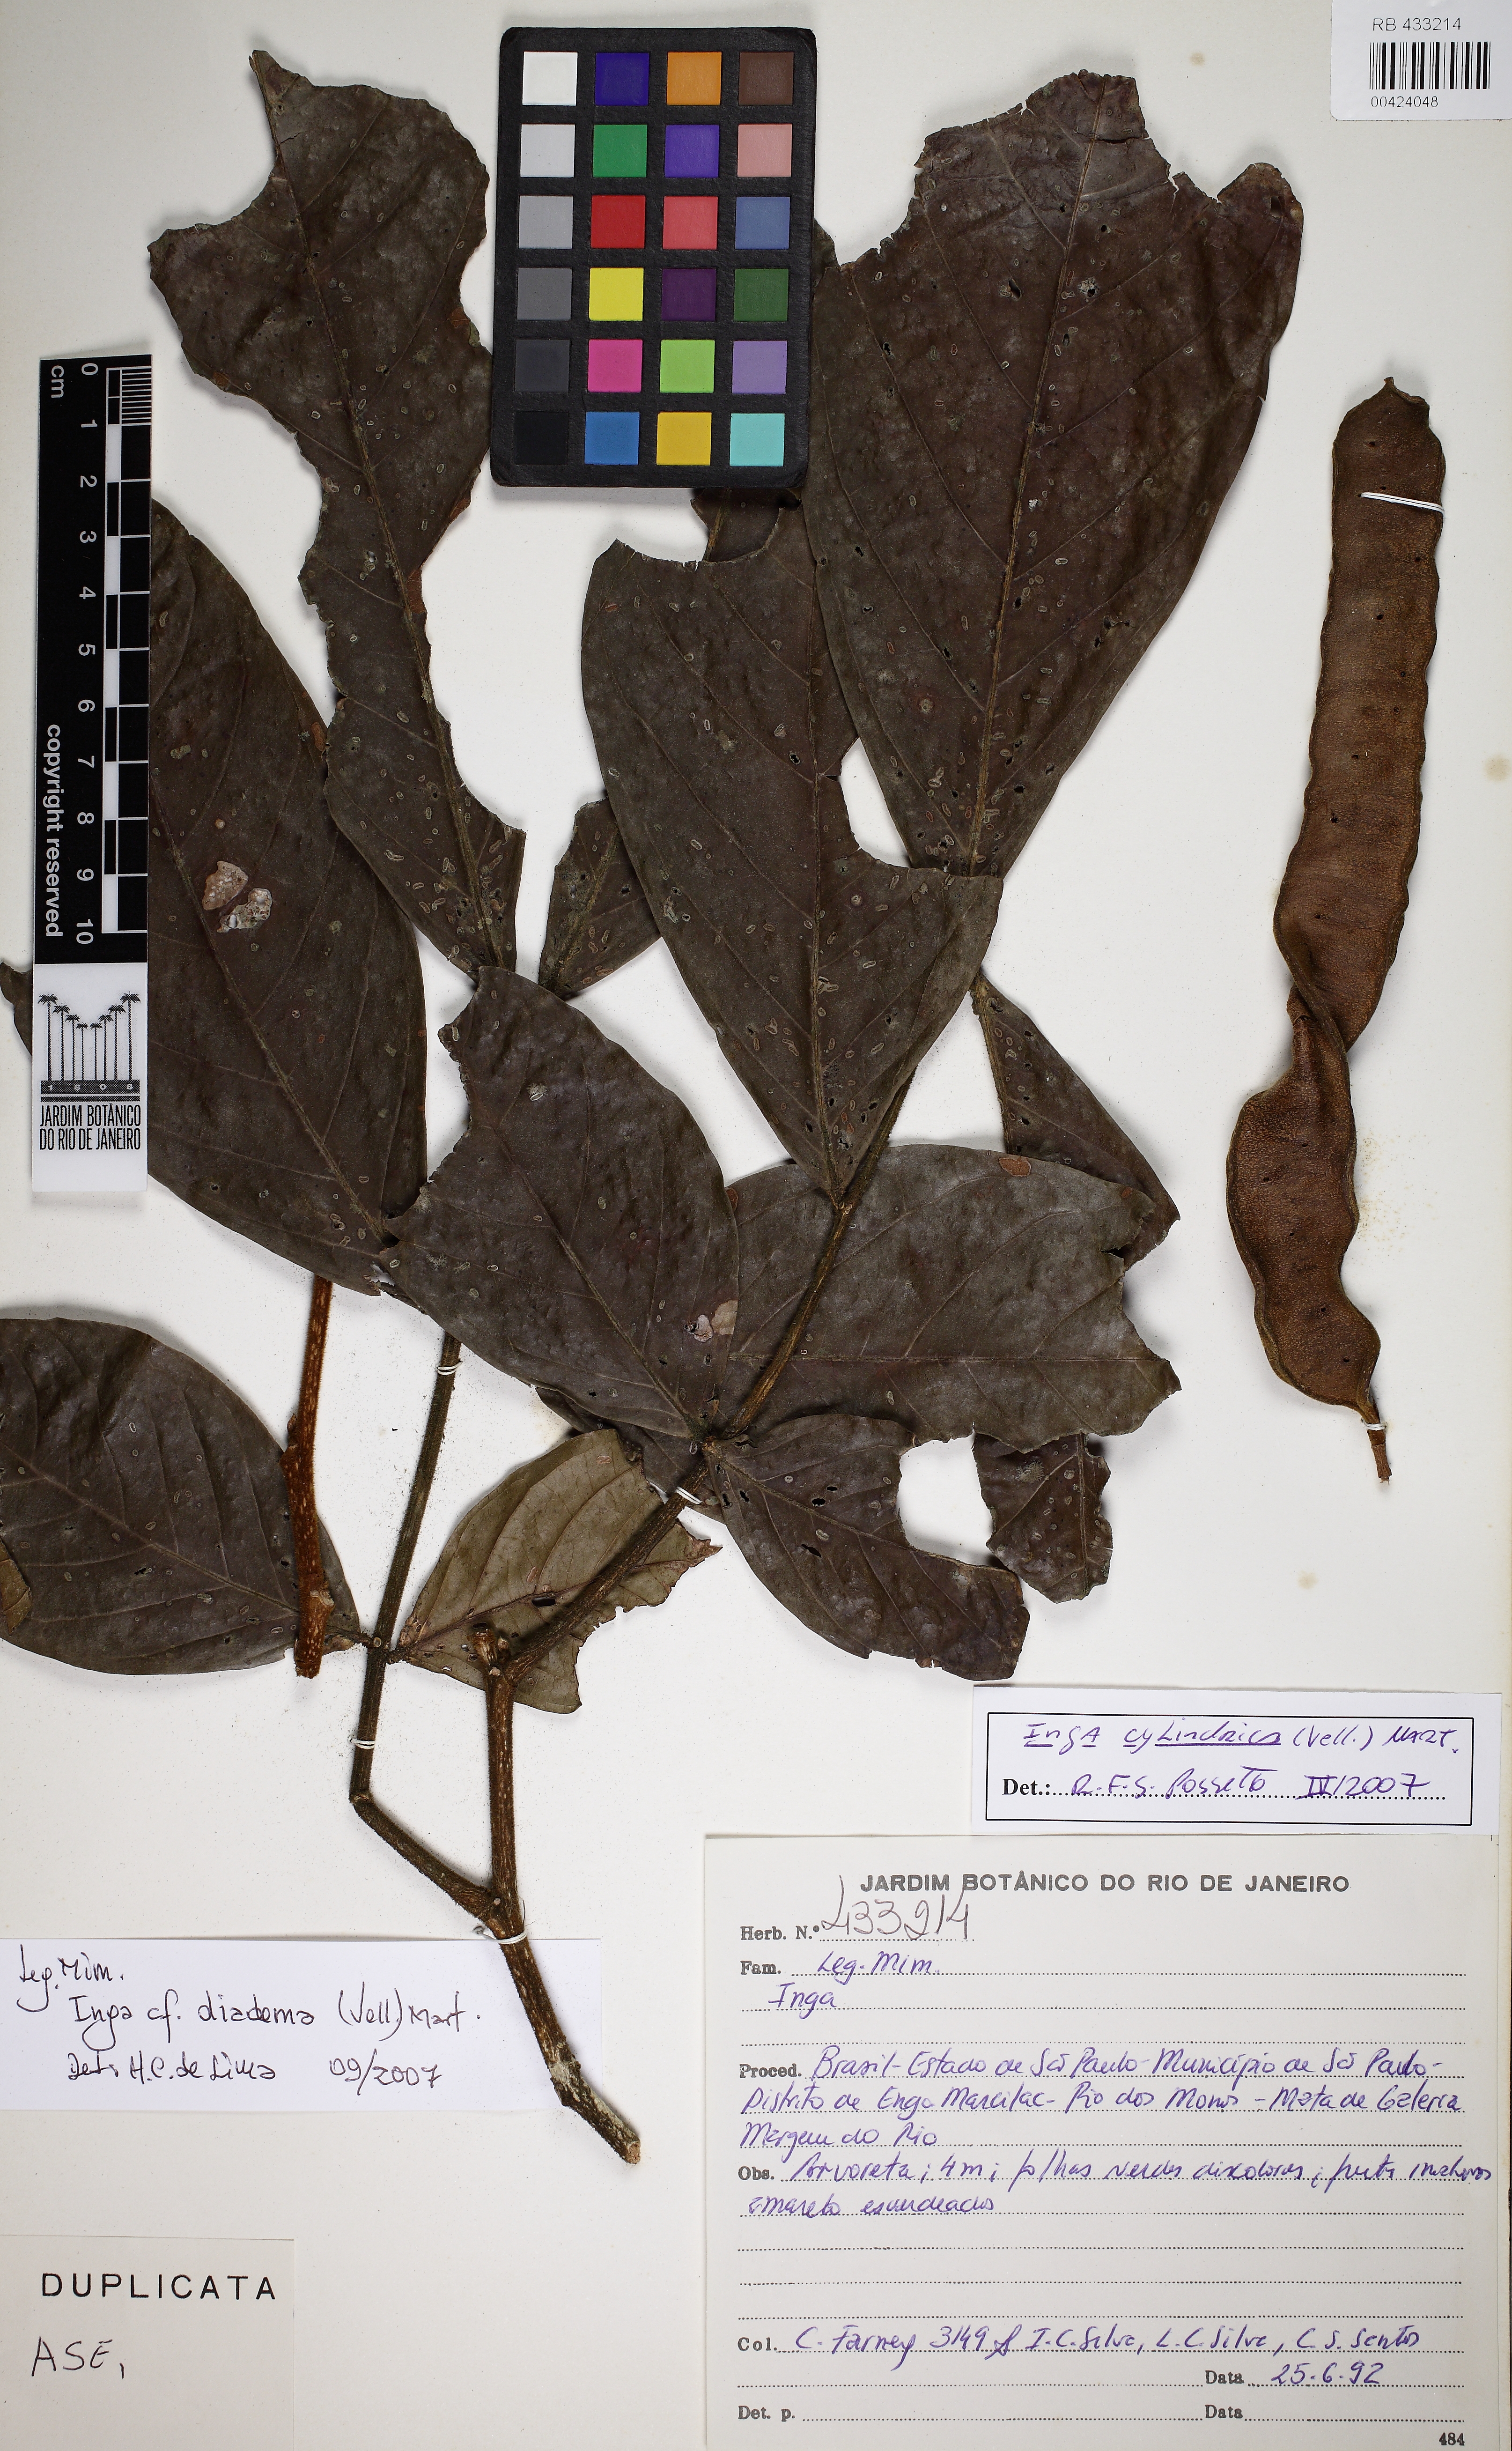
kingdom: Plantae
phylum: Tracheophyta
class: Magnoliopsida
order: Fabales
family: Fabaceae
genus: Inga
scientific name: Inga cylindrica
